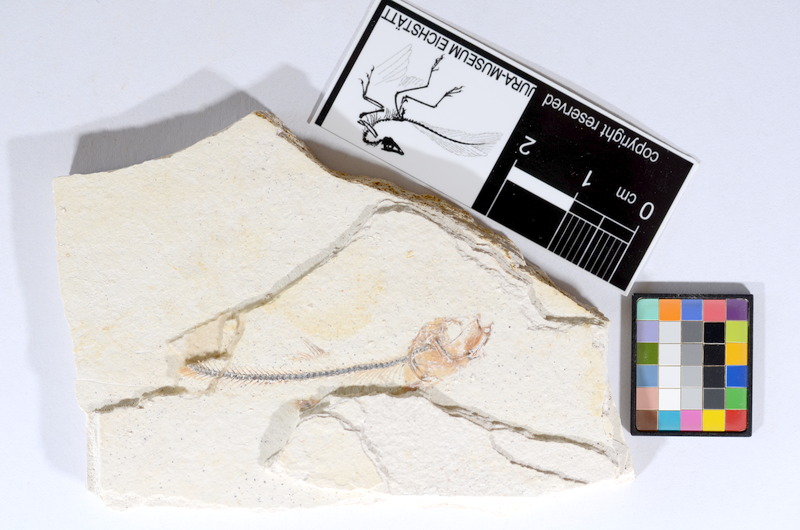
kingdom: Animalia
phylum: Chordata
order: Salmoniformes
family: Orthogonikleithridae
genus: Orthogonikleithrus
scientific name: Orthogonikleithrus hoelli
